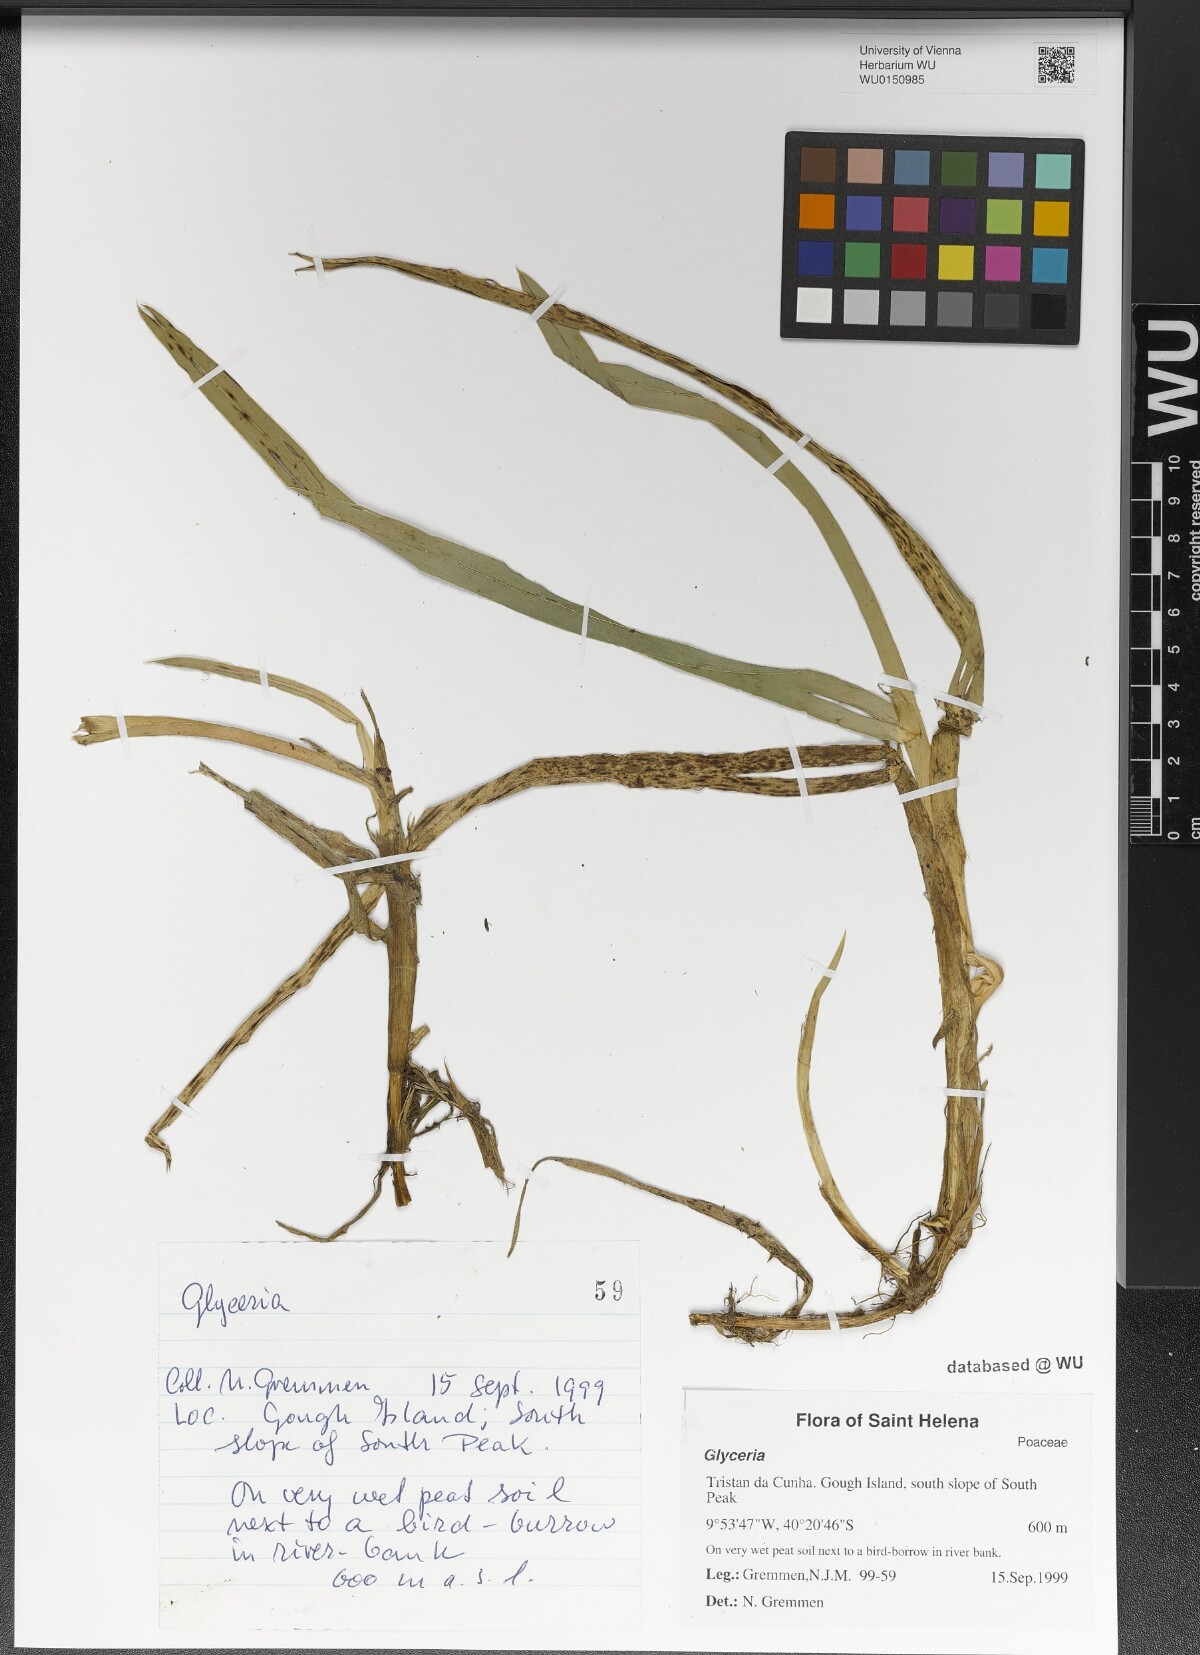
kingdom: Plantae
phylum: Tracheophyta
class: Liliopsida
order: Poales
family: Poaceae
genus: Glyceria
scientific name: Glyceria
